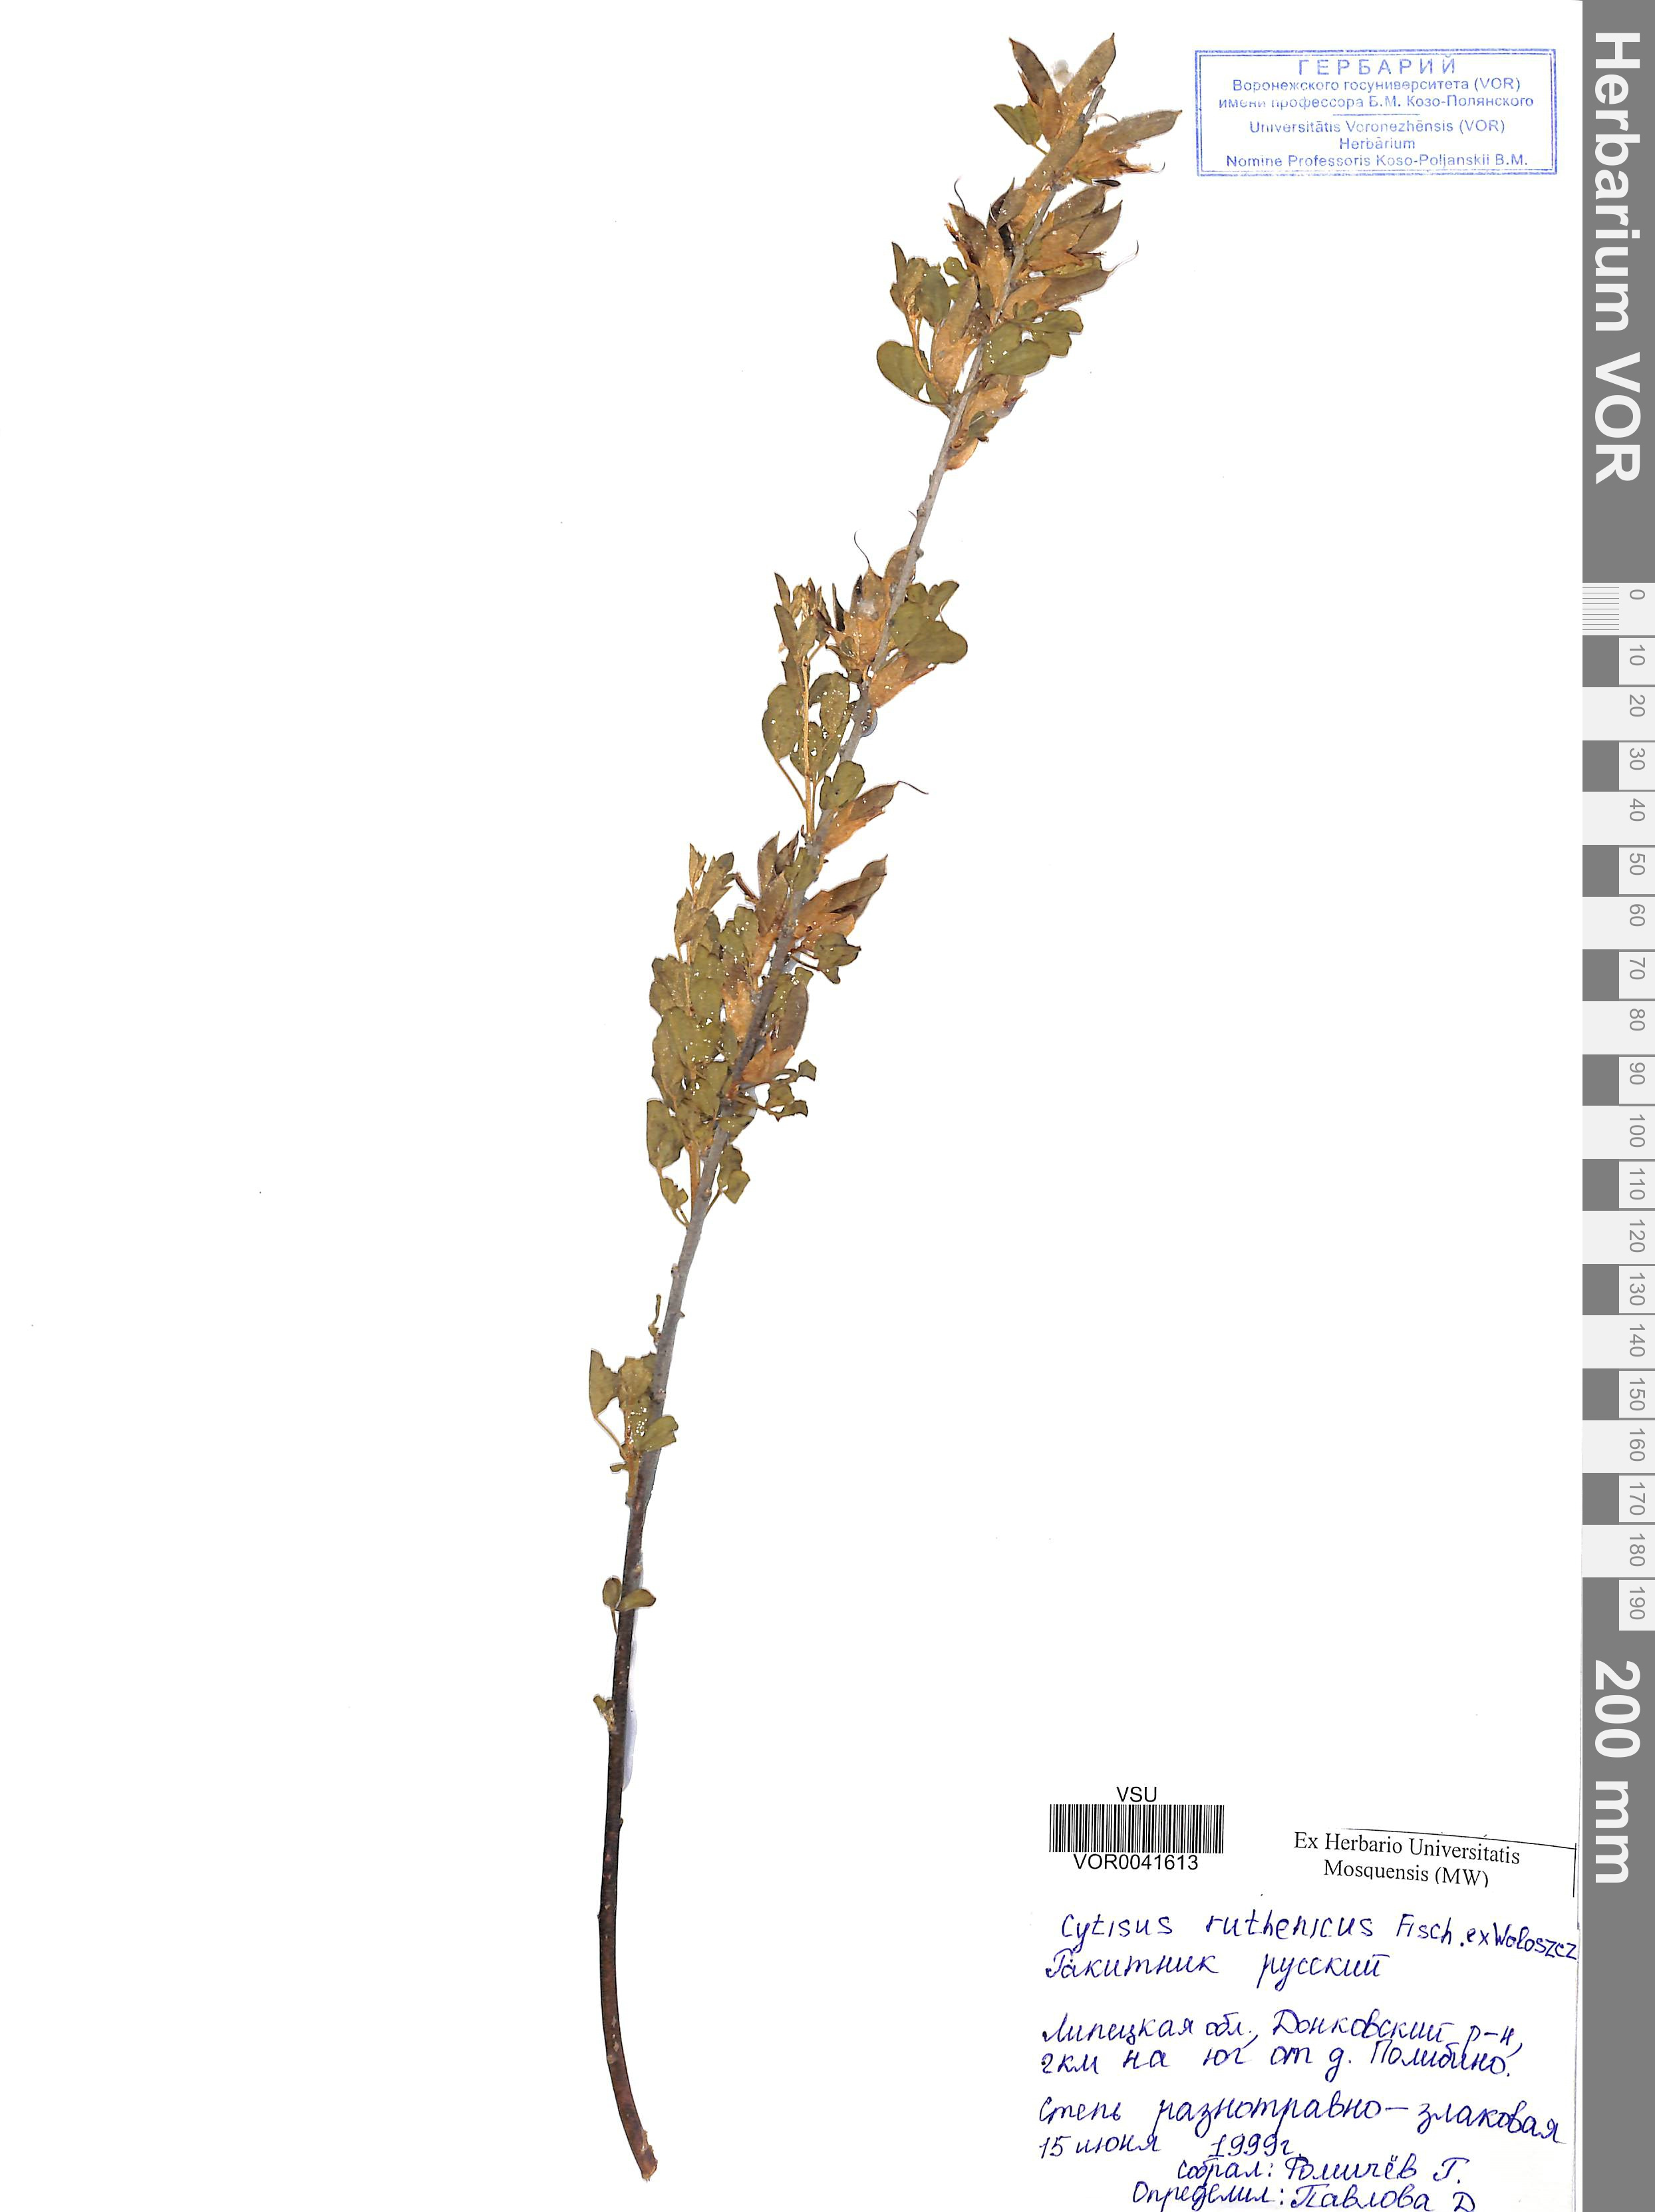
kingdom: Plantae
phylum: Tracheophyta
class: Magnoliopsida
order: Fabales
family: Fabaceae
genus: Chamaecytisus
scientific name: Chamaecytisus ruthenicus
